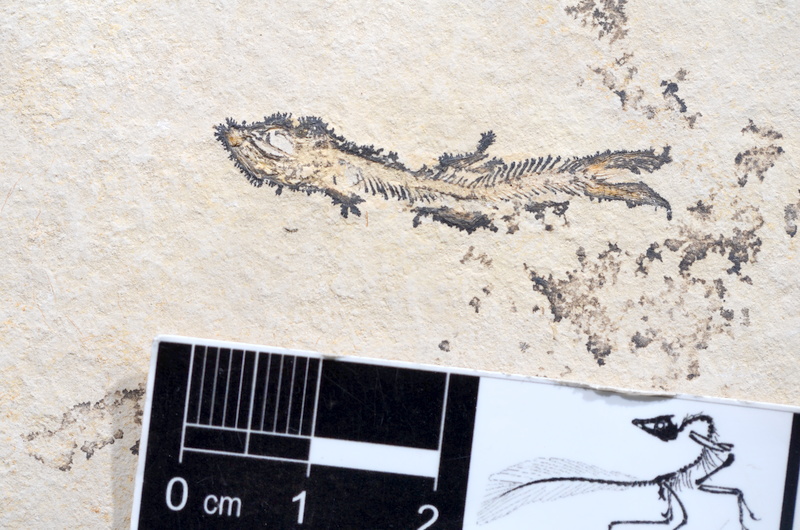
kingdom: Animalia
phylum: Chordata
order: Salmoniformes
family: Orthogonikleithridae
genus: Leptolepides
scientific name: Leptolepides sprattiformis
